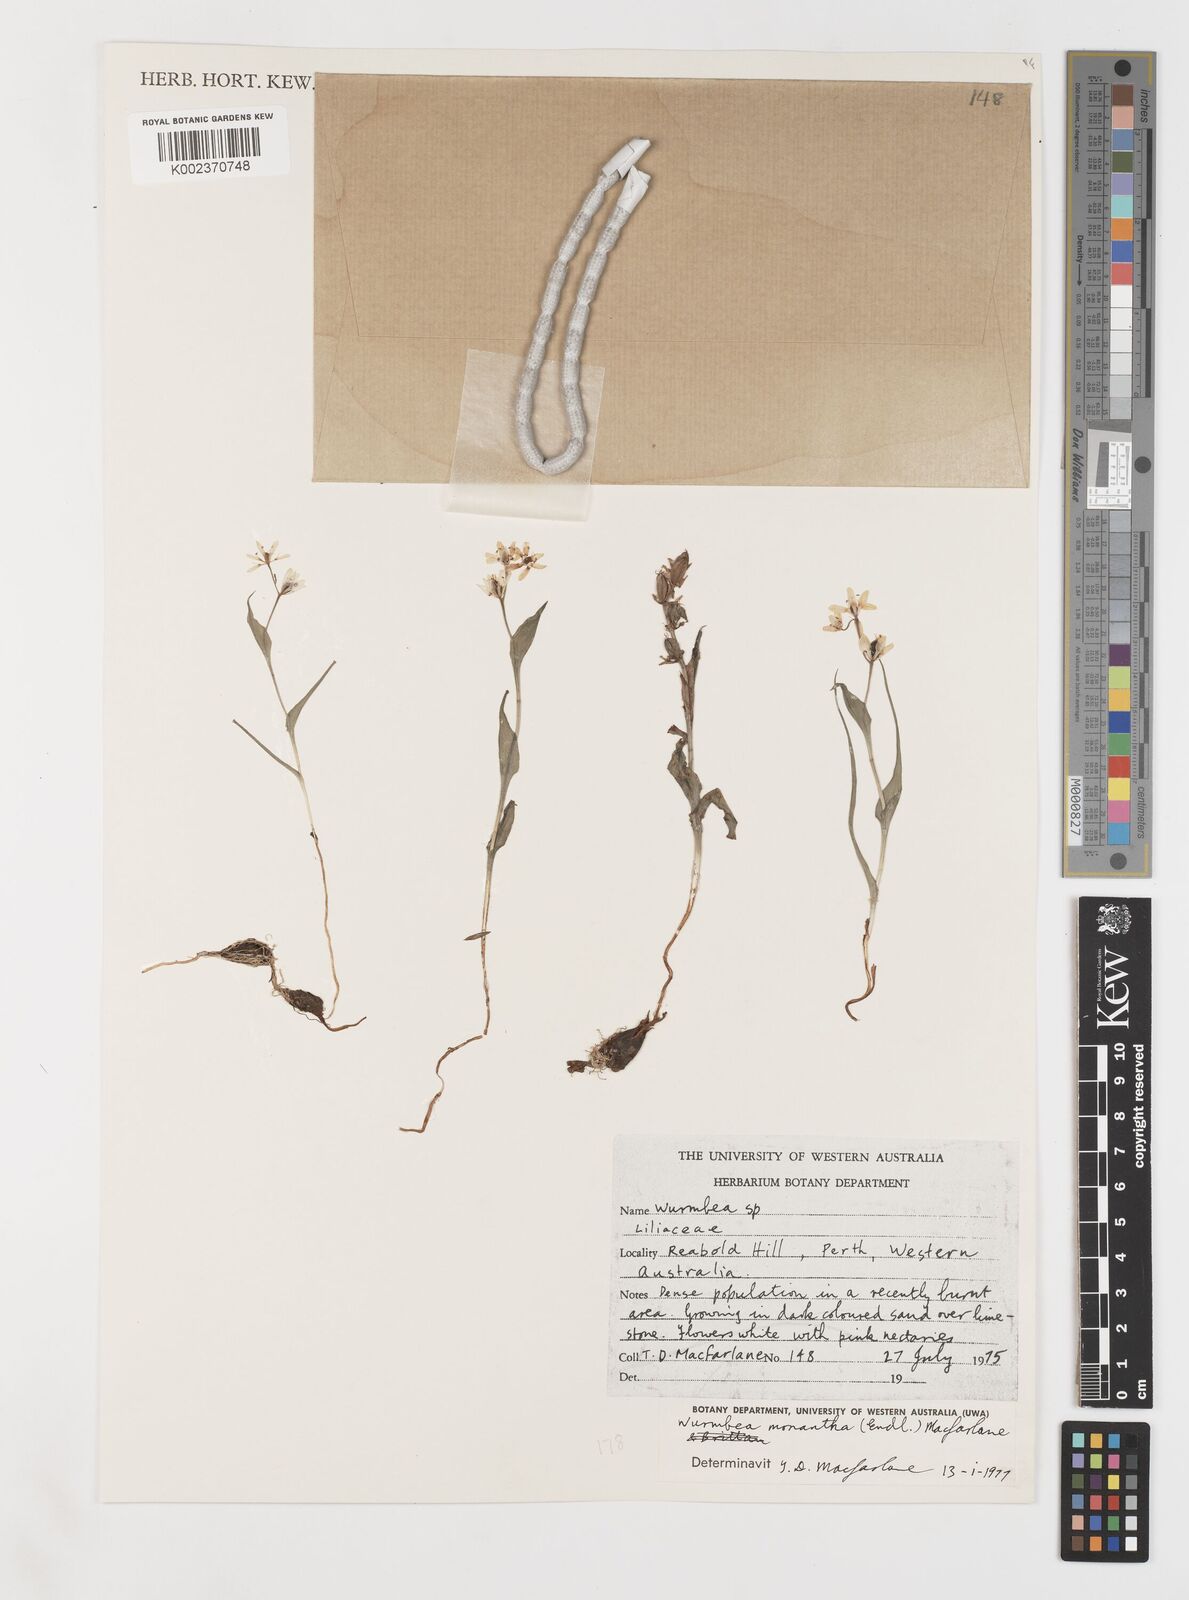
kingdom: Plantae
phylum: Tracheophyta
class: Liliopsida
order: Liliales
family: Colchicaceae
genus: Wurmbea
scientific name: Wurmbea monantha
